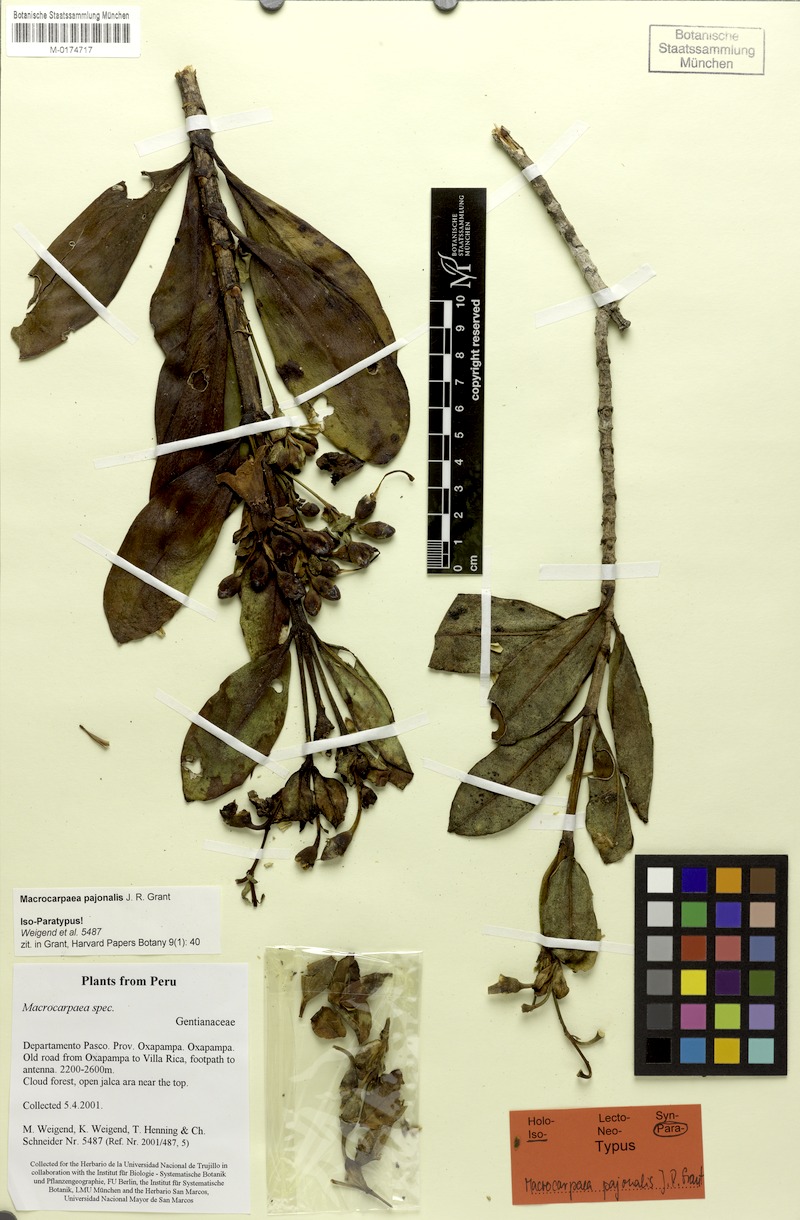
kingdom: Plantae
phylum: Tracheophyta
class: Magnoliopsida
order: Gentianales
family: Gentianaceae
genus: Macrocarpaea
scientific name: Macrocarpaea pajonalis
